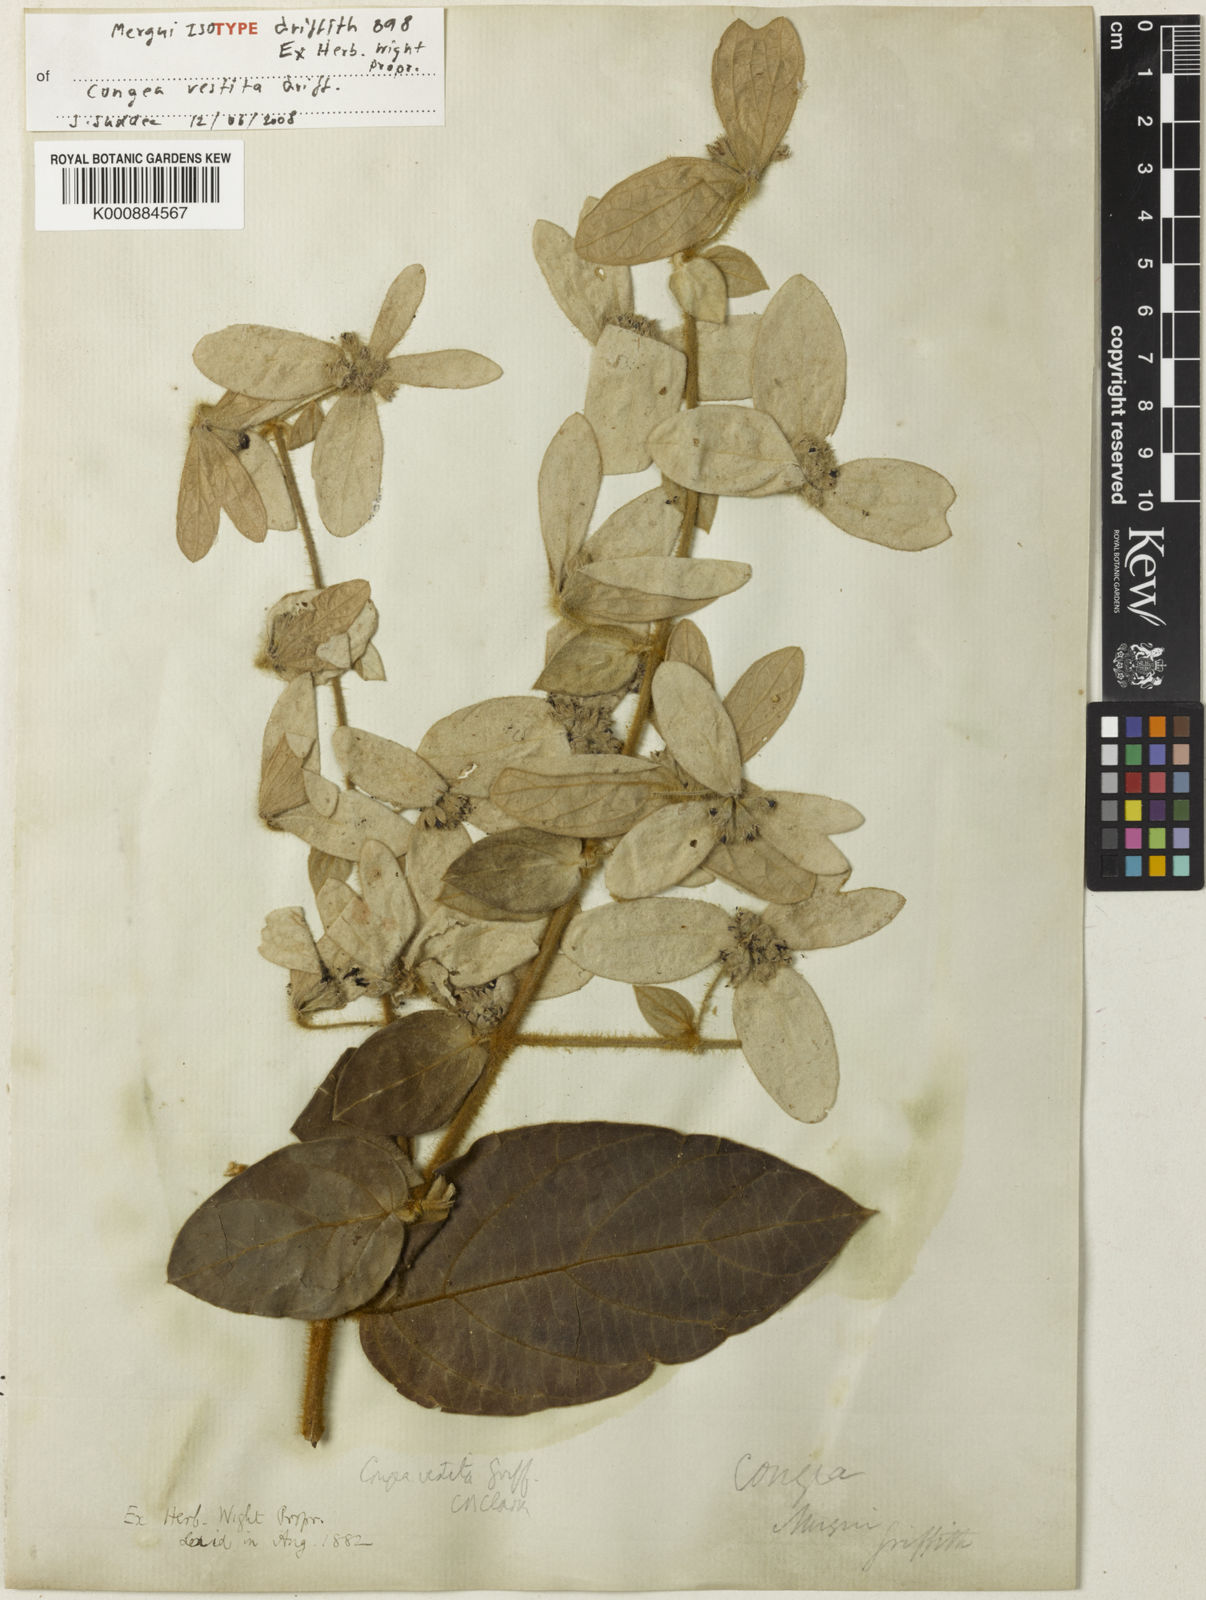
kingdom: Plantae
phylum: Tracheophyta
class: Magnoliopsida
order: Lamiales
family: Lamiaceae
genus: Congea
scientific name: Congea vestita
